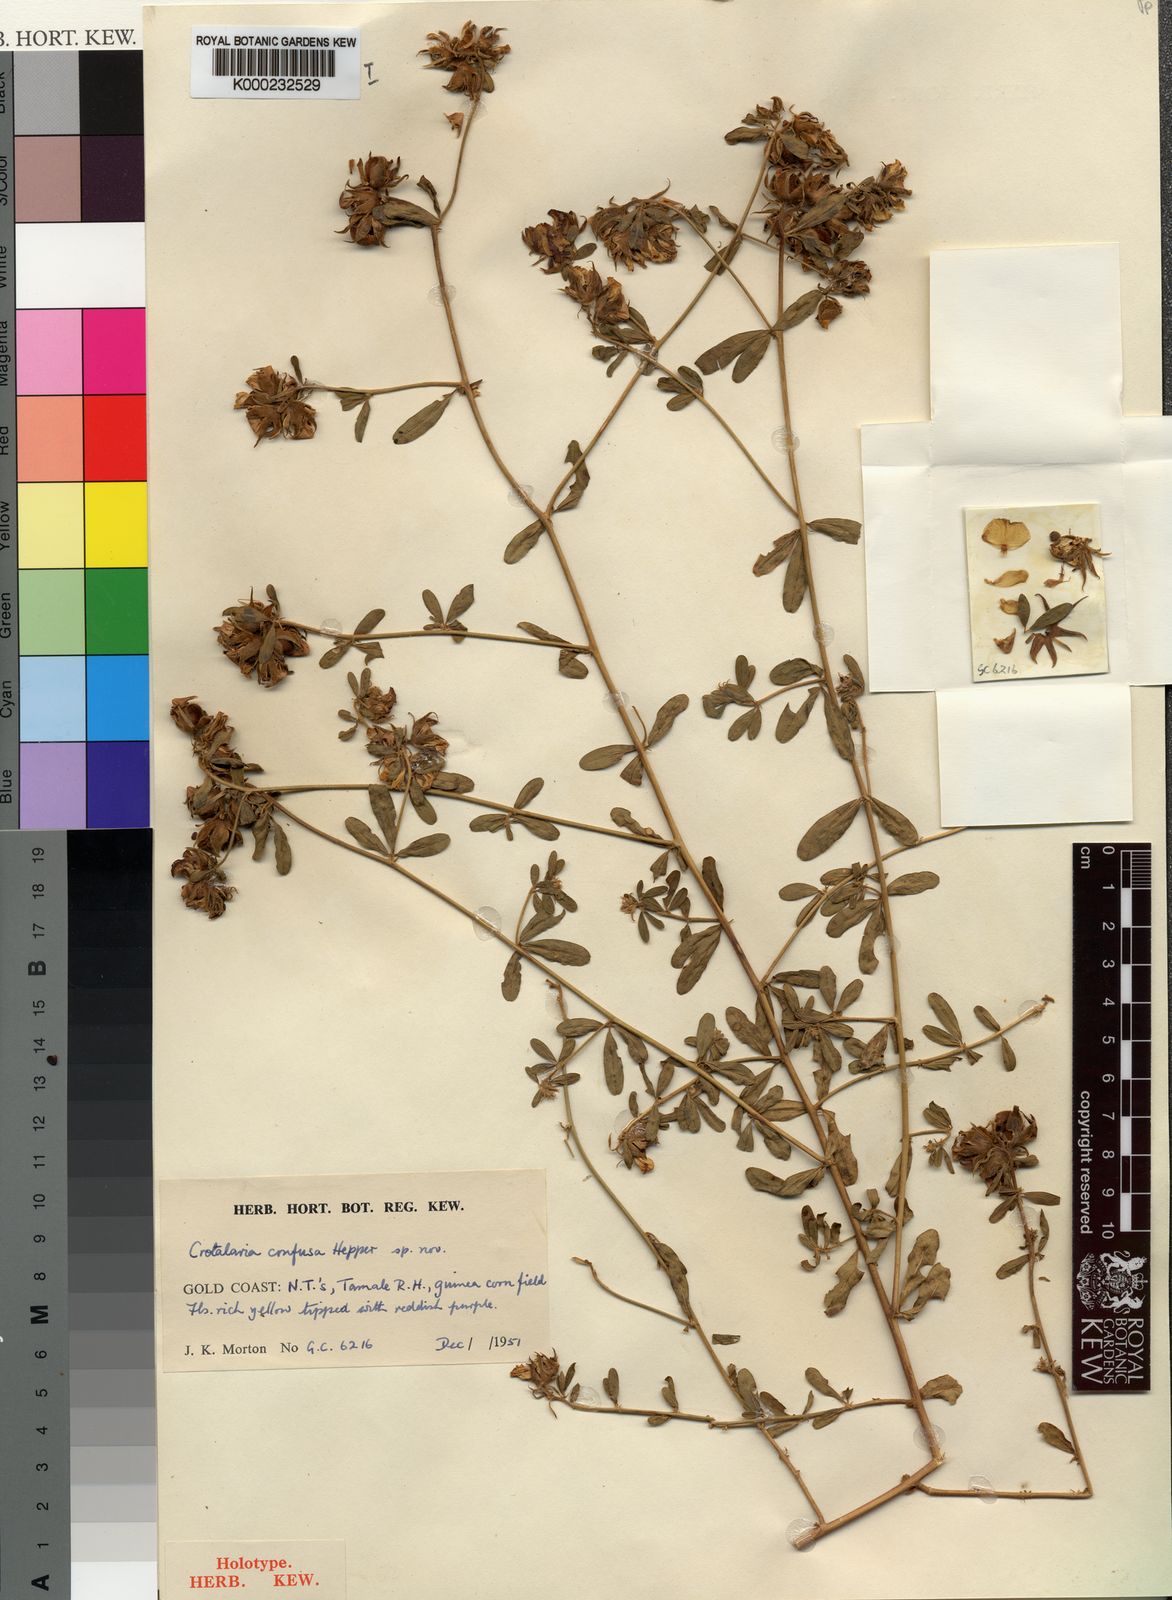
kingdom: Plantae
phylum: Tracheophyta
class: Magnoliopsida
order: Fabales
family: Fabaceae
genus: Crotalaria
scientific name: Crotalaria confusa
